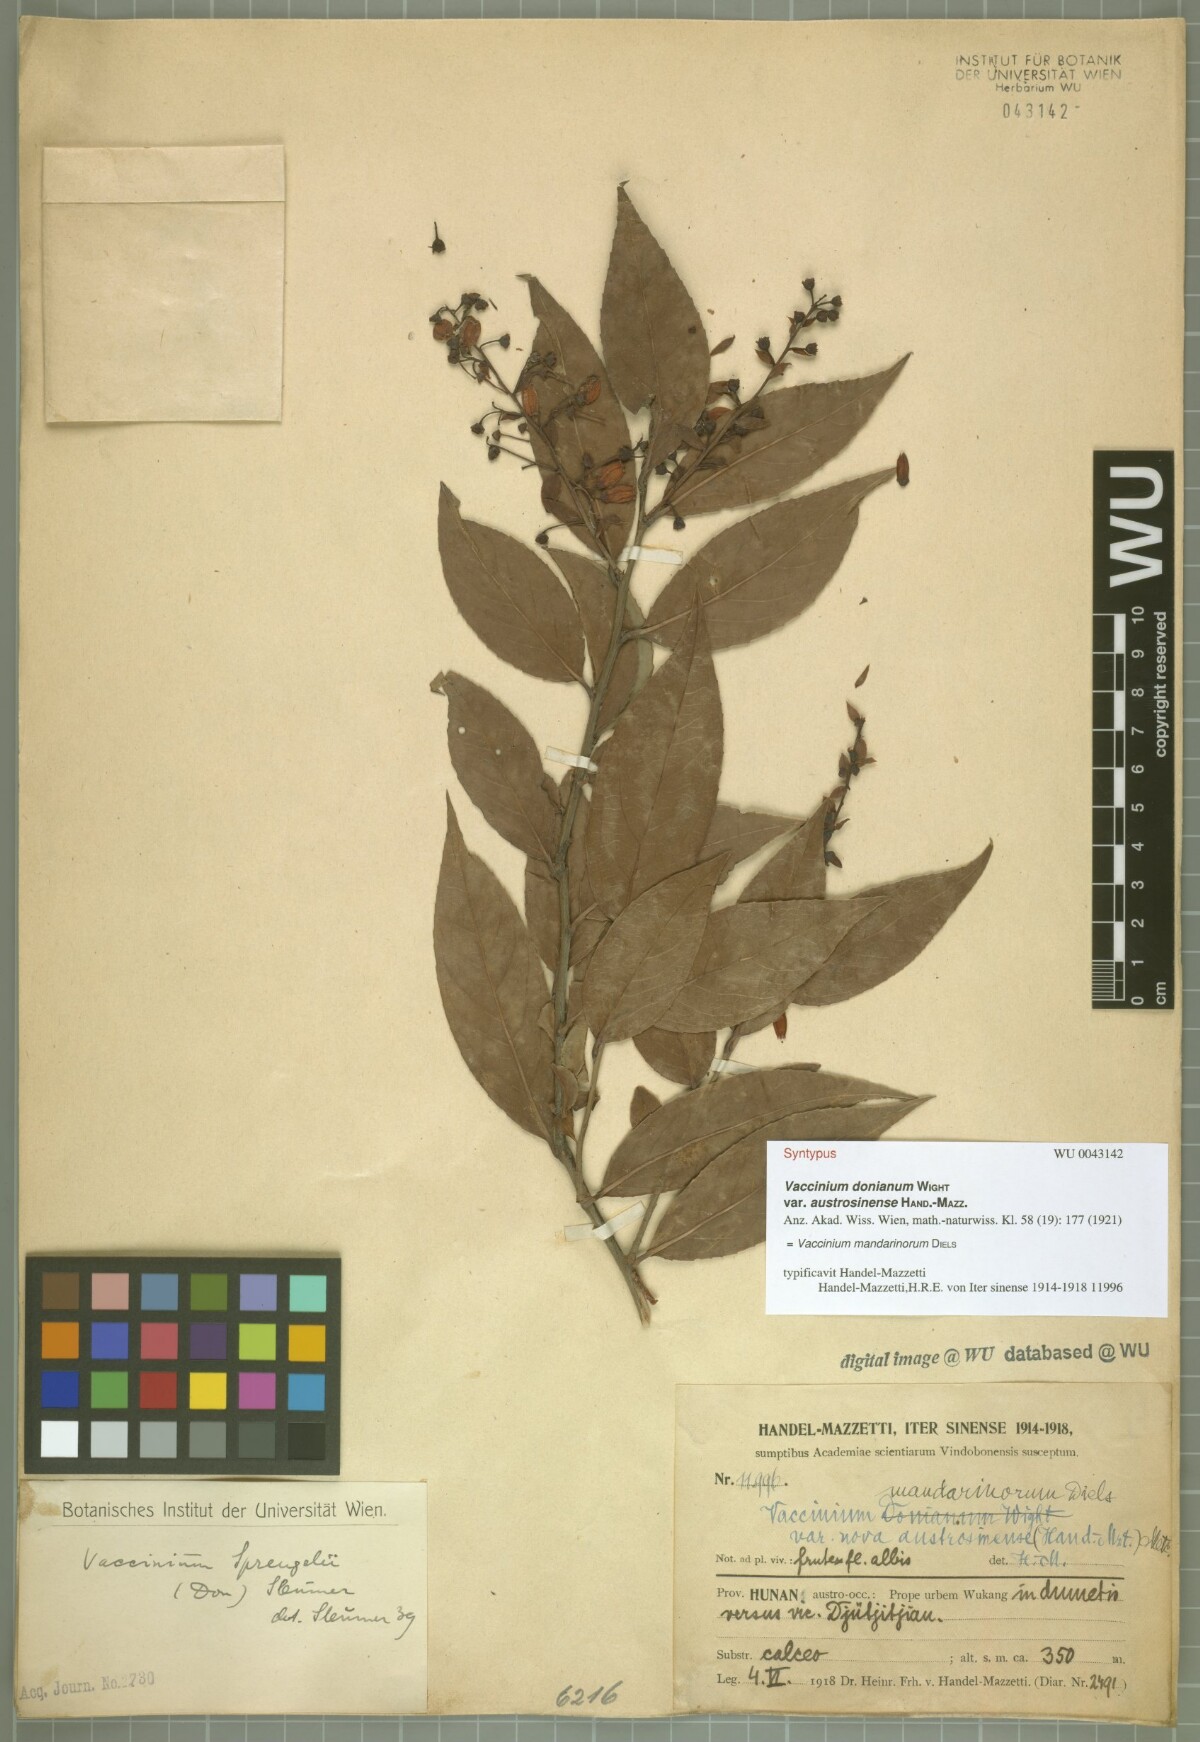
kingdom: Plantae
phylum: Tracheophyta
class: Magnoliopsida
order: Ericales
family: Ericaceae
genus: Vaccinium
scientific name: Vaccinium mandarinorum
